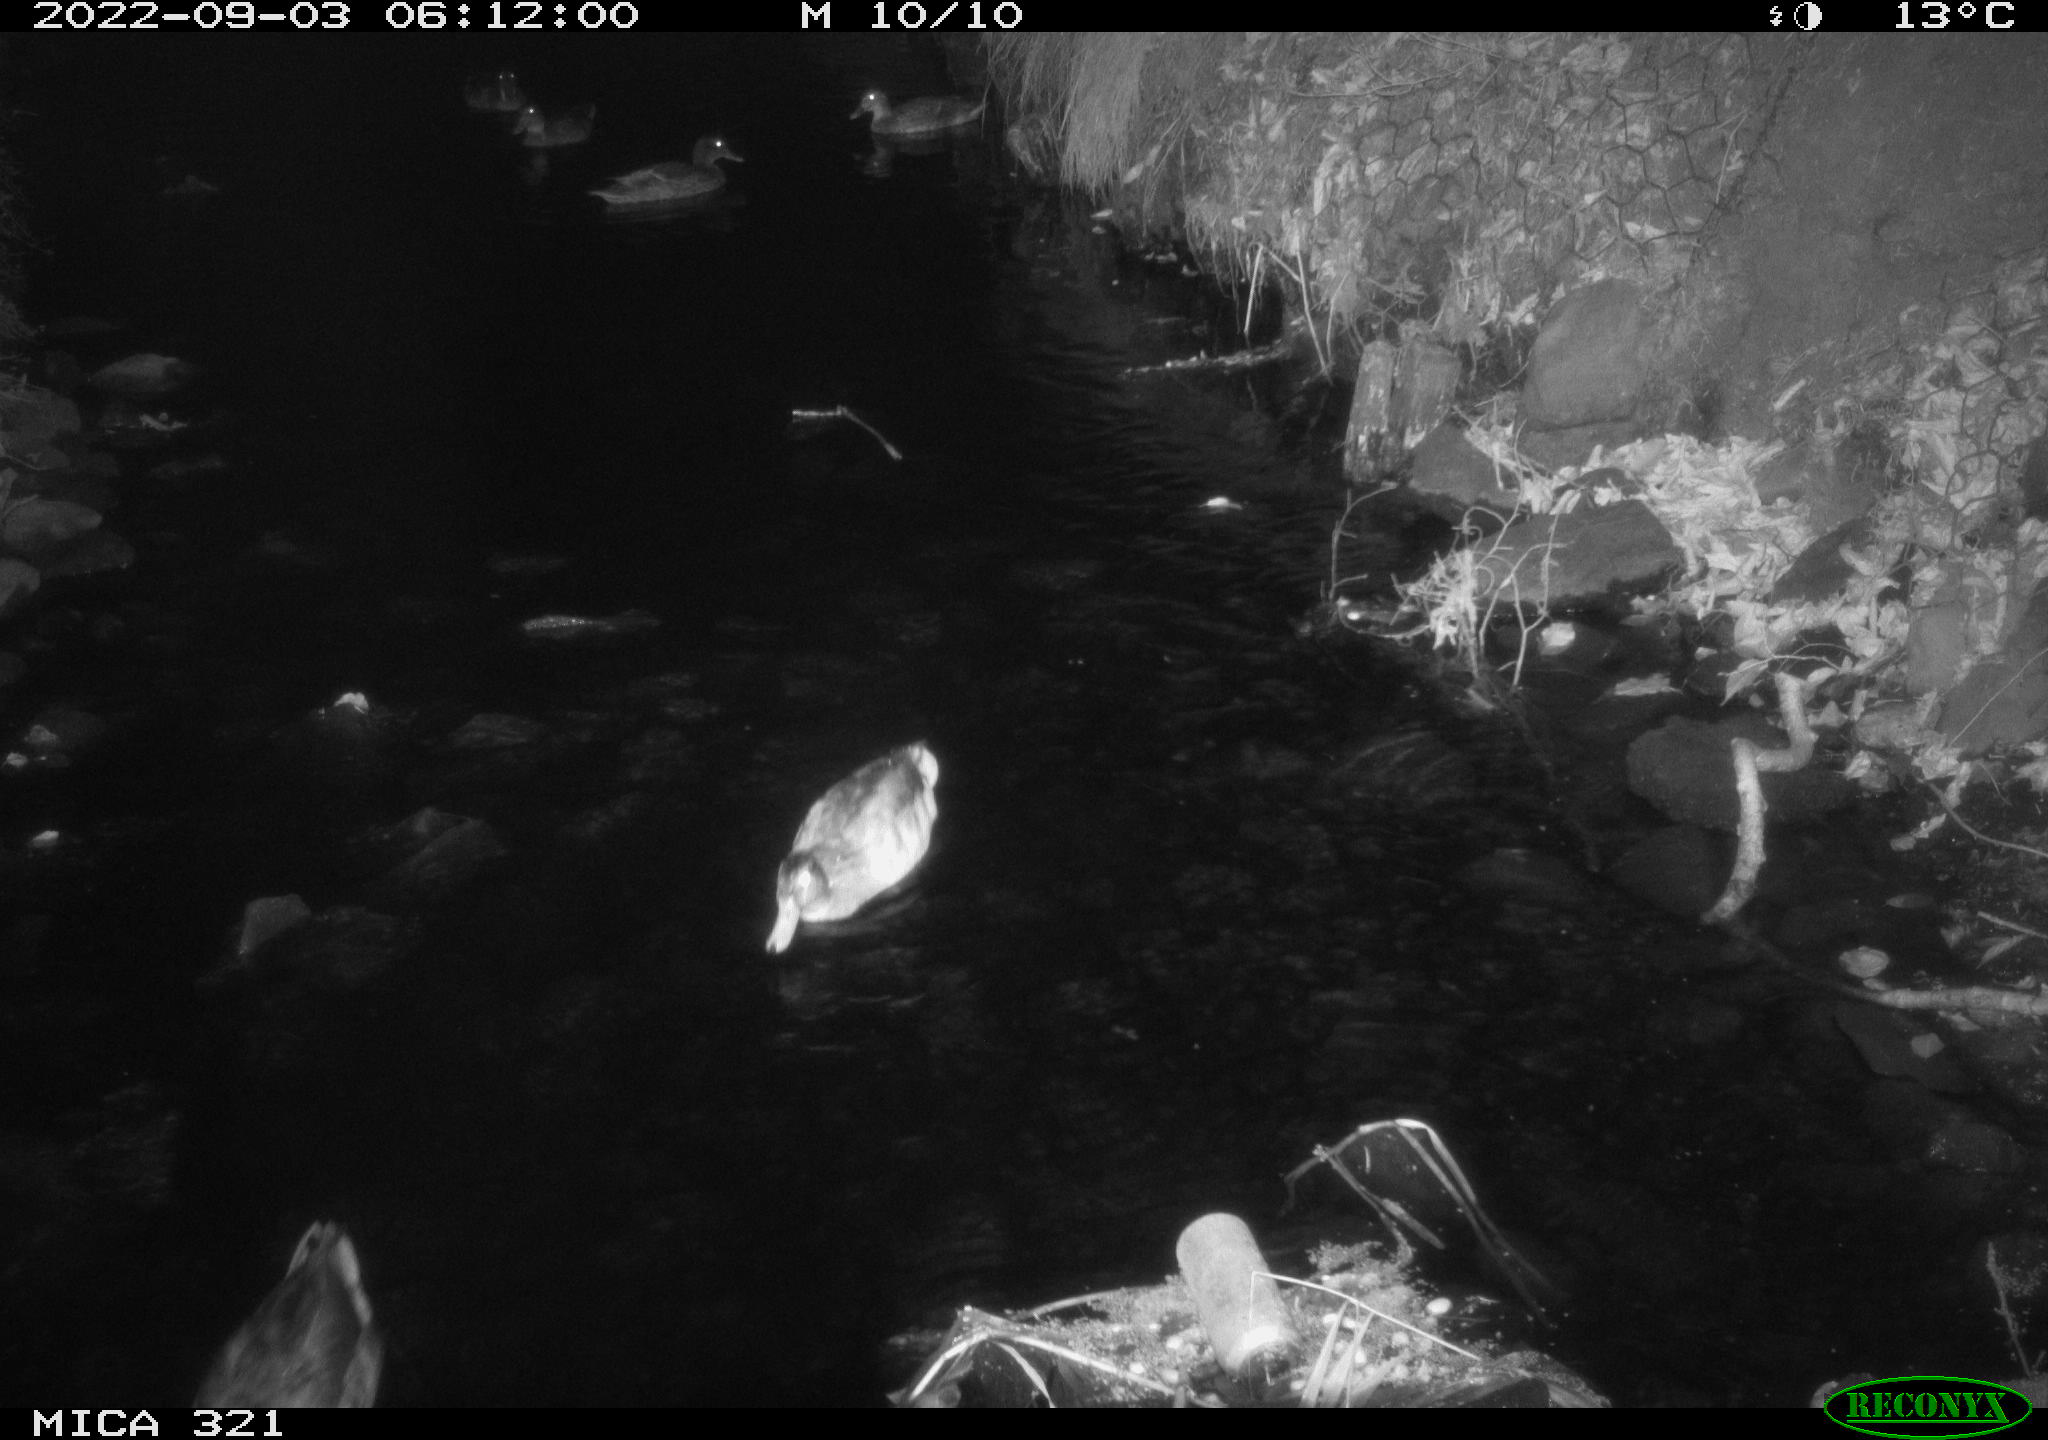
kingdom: Animalia
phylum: Chordata
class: Aves
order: Anseriformes
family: Anatidae
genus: Anas
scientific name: Anas platyrhynchos
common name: Mallard
